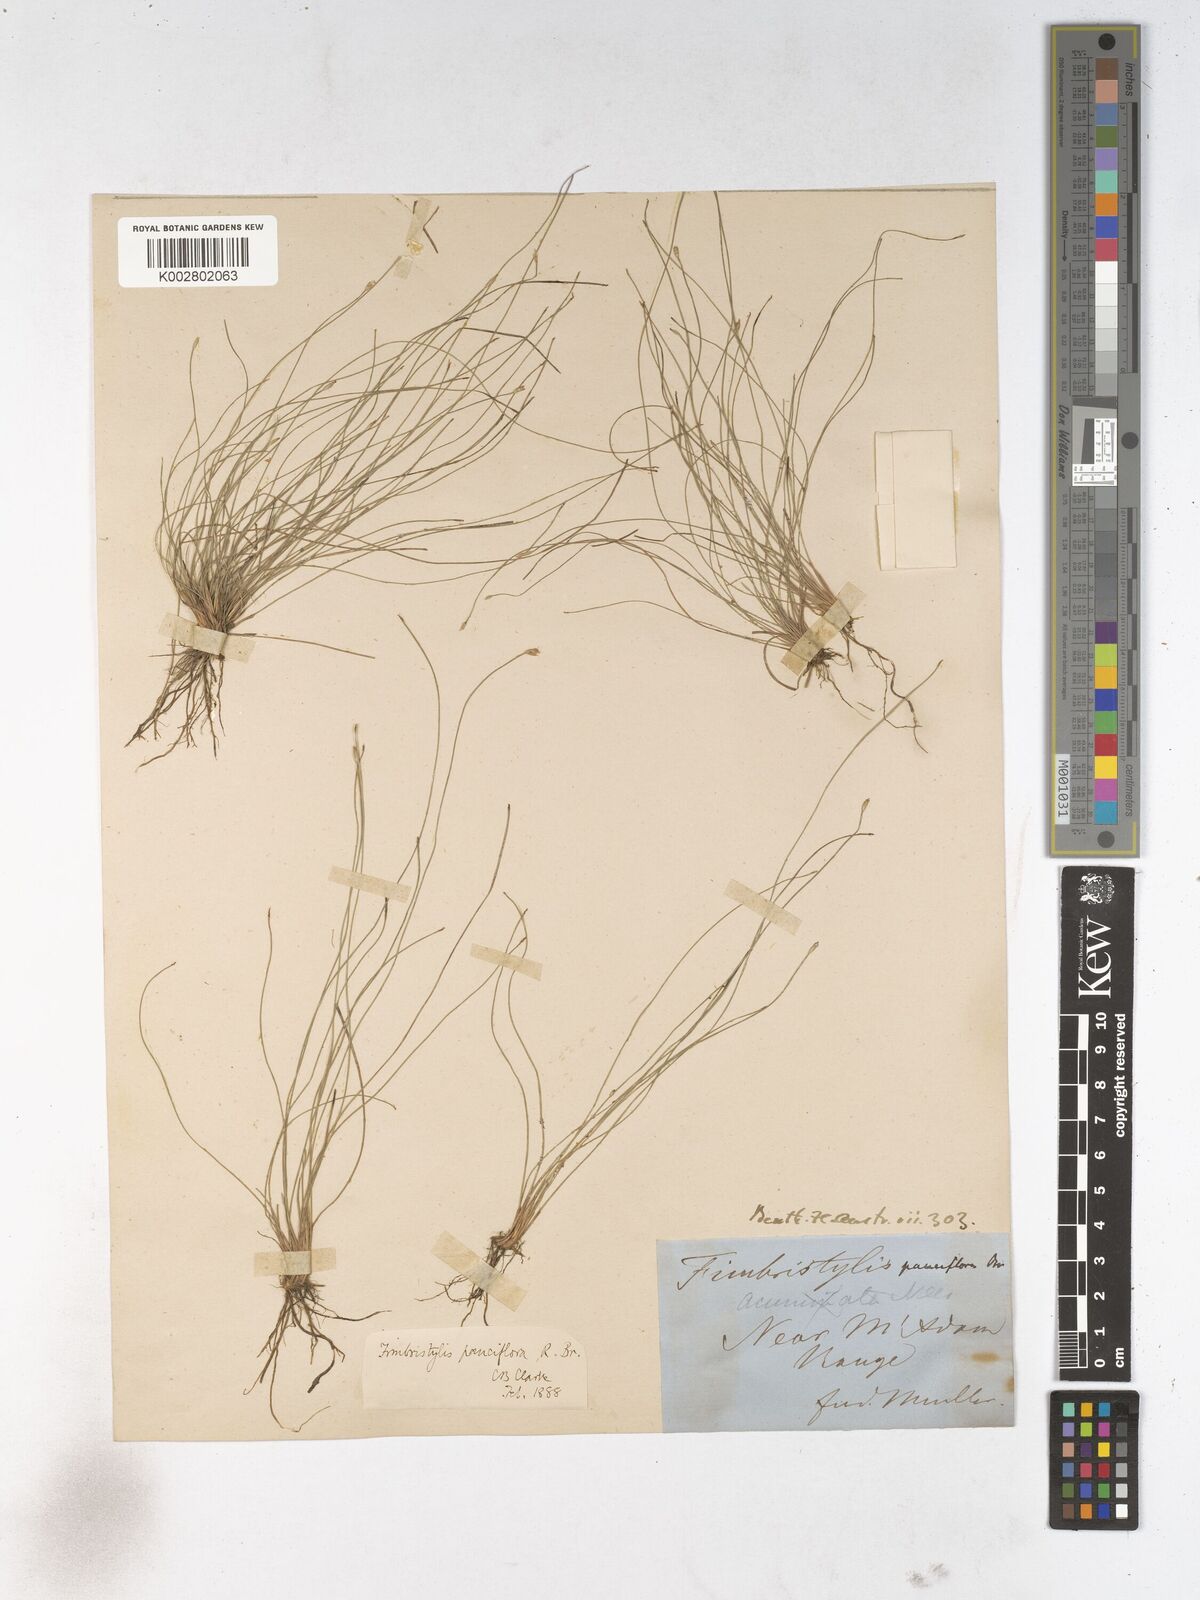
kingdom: Plantae
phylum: Tracheophyta
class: Liliopsida
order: Poales
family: Cyperaceae
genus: Fimbristylis
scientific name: Fimbristylis pauciflora
